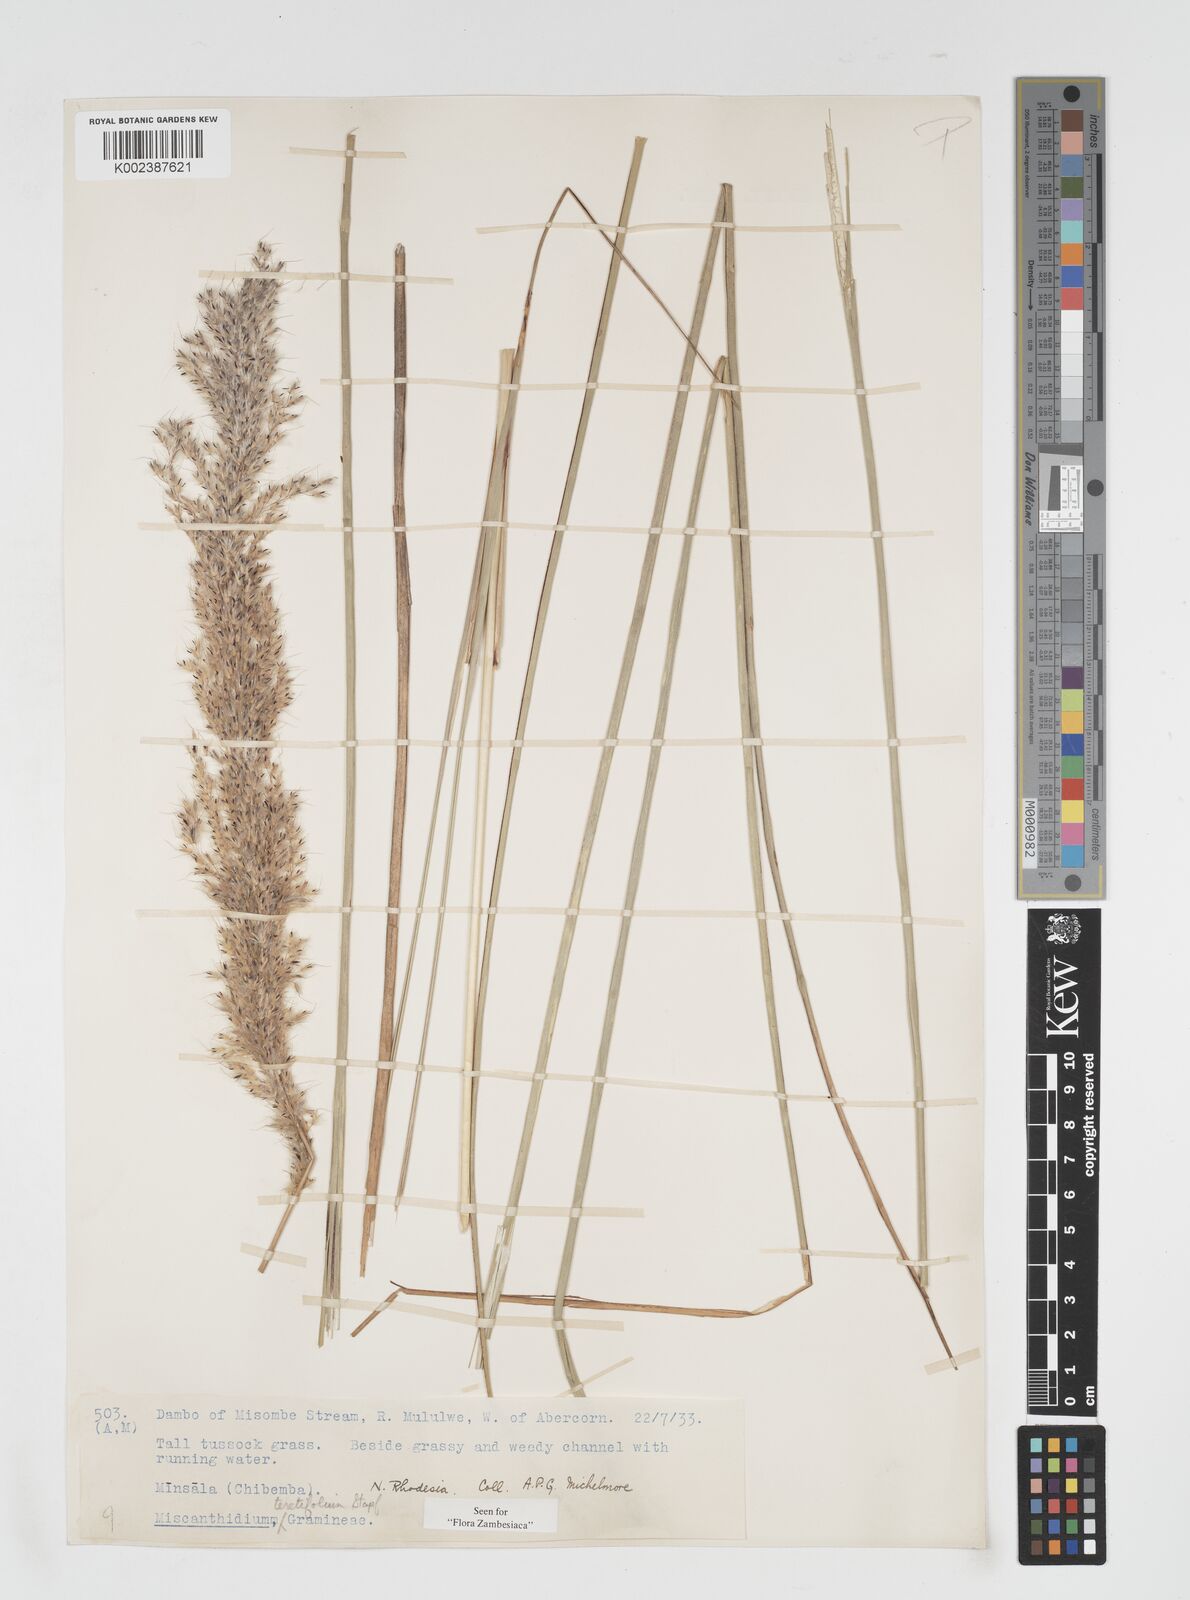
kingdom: Plantae
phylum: Tracheophyta
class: Liliopsida
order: Poales
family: Poaceae
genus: Miscanthidium
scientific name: Miscanthidium junceum
